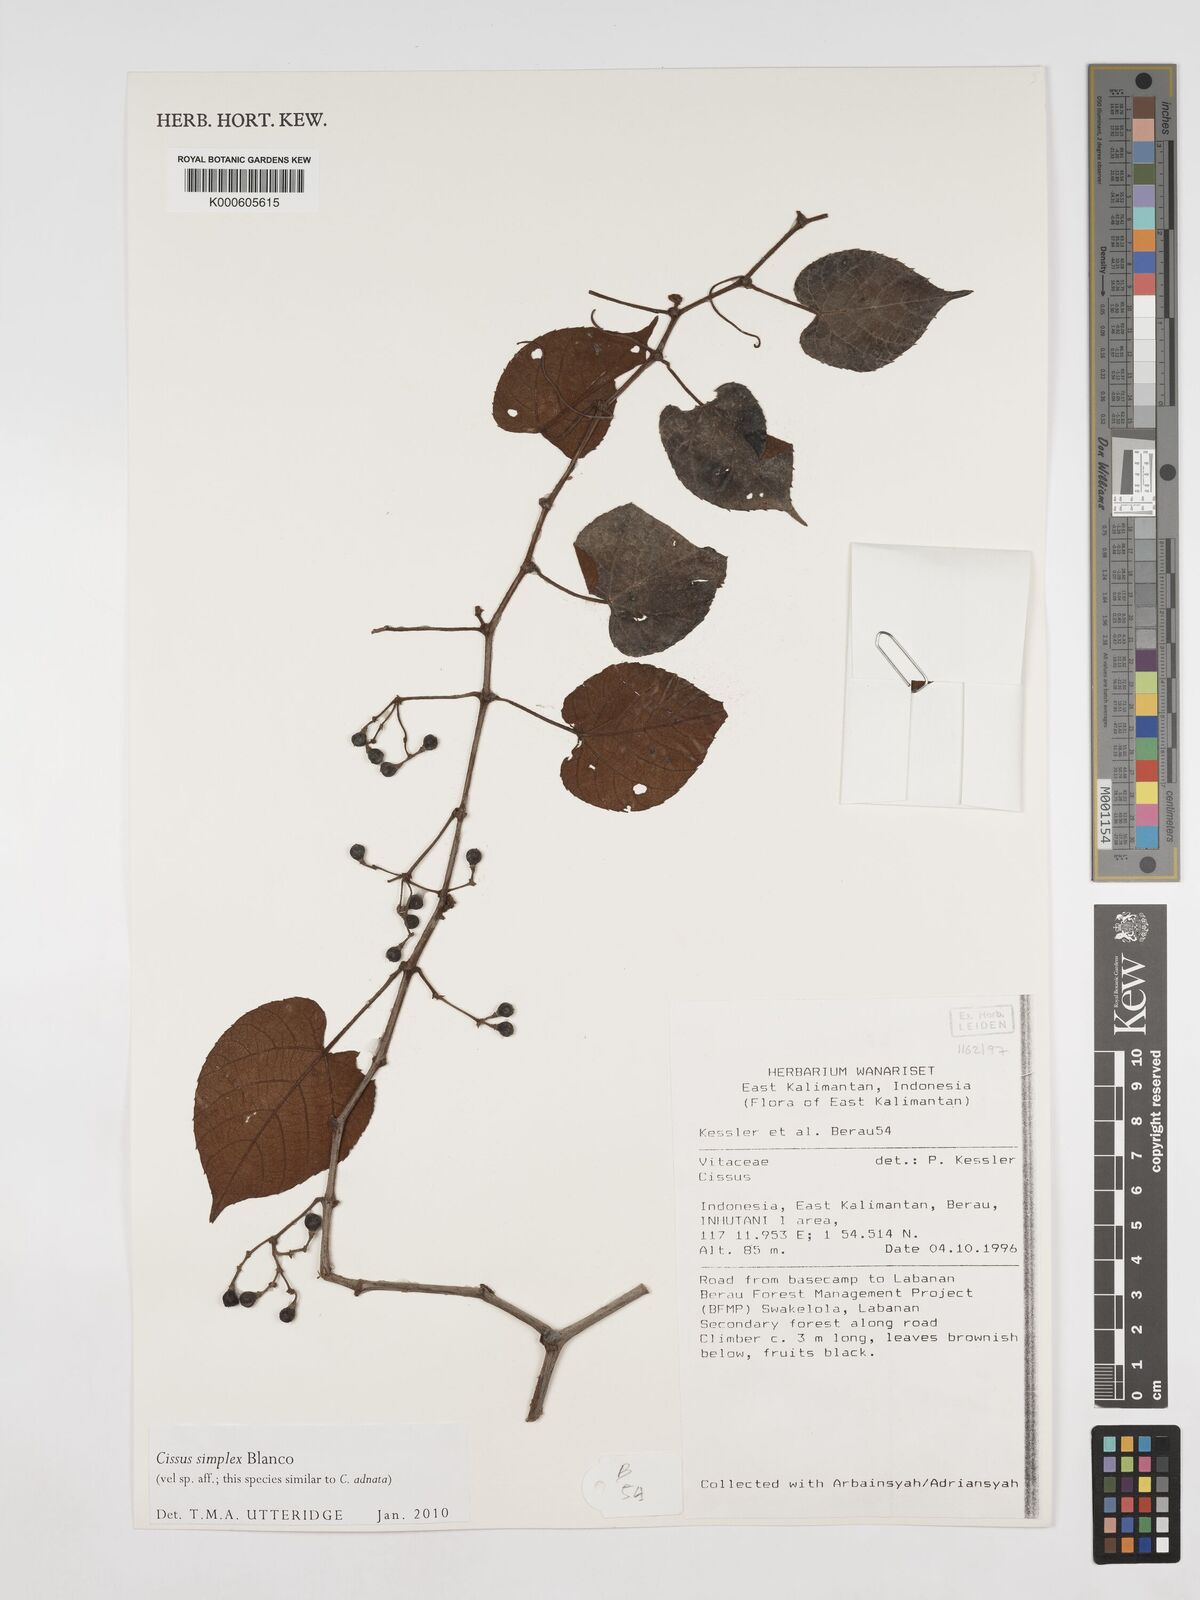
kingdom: Plantae
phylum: Tracheophyta
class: Magnoliopsida
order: Vitales
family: Vitaceae
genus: Cissus
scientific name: Cissus aristata
